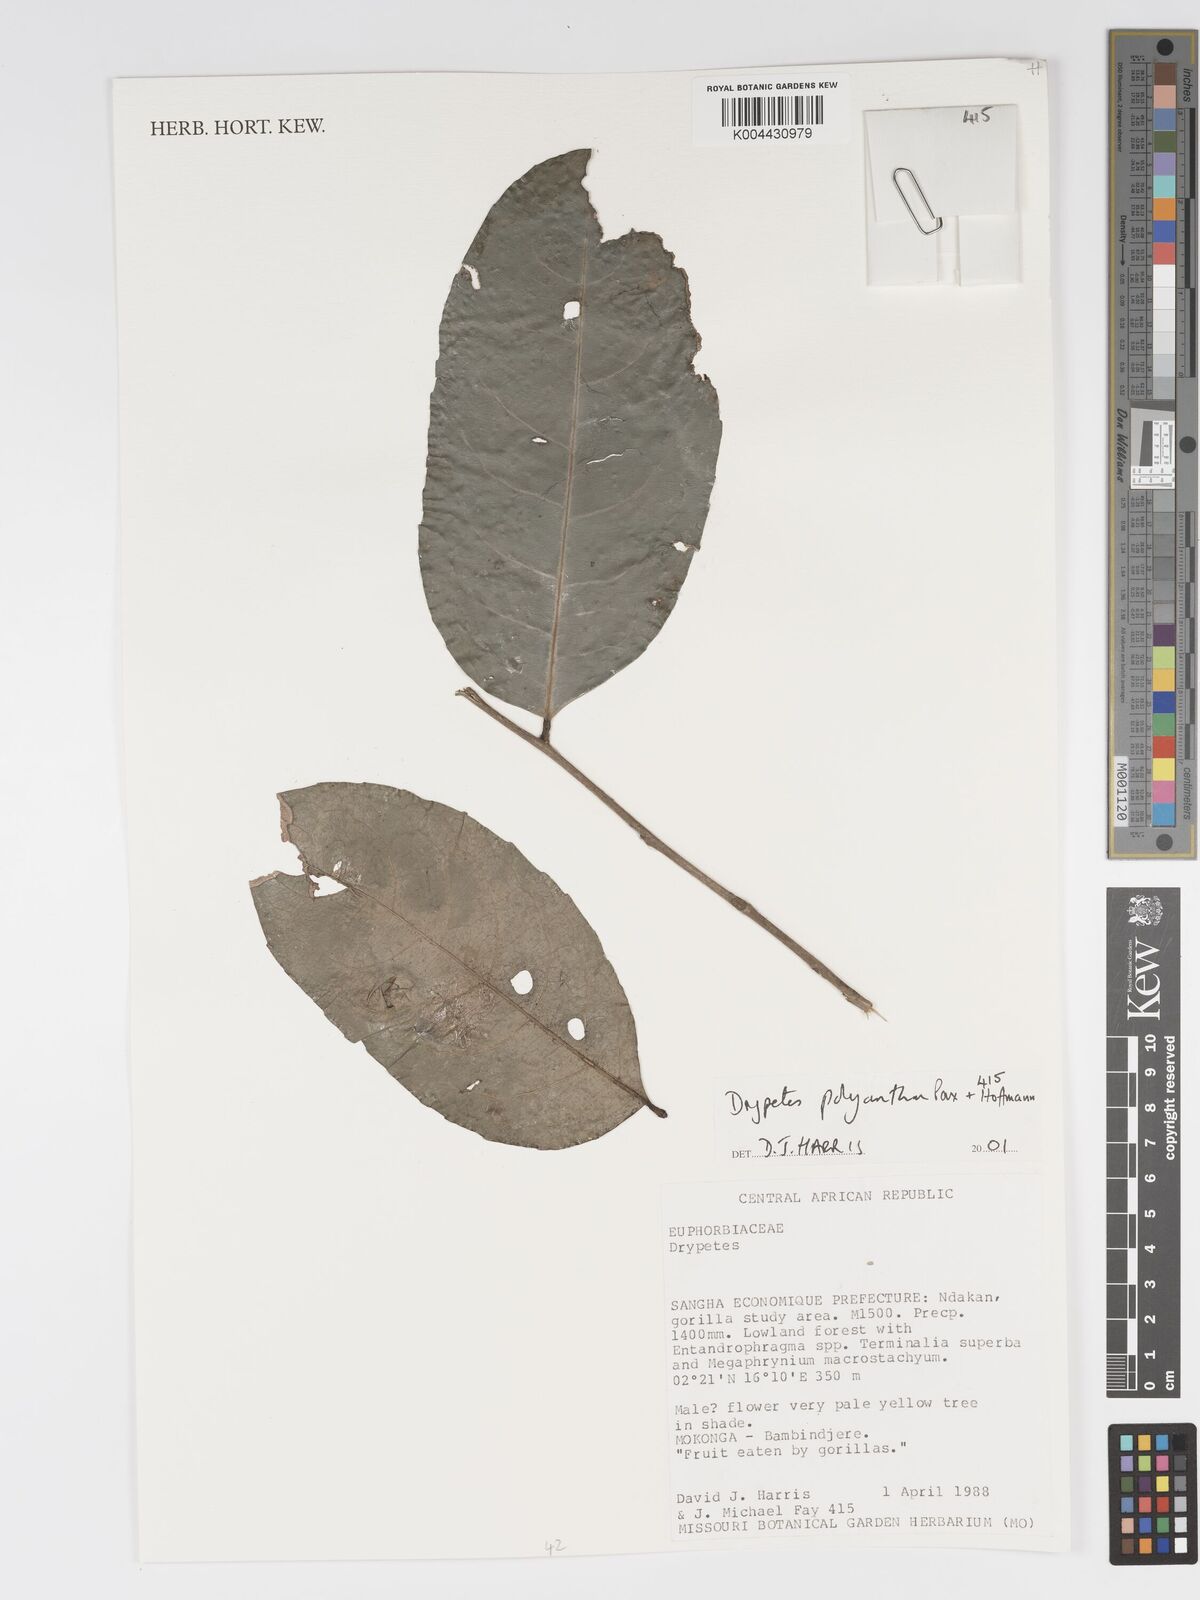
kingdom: Plantae
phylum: Tracheophyta
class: Magnoliopsida
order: Malpighiales
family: Putranjivaceae
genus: Drypetes
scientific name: Drypetes polyantha
